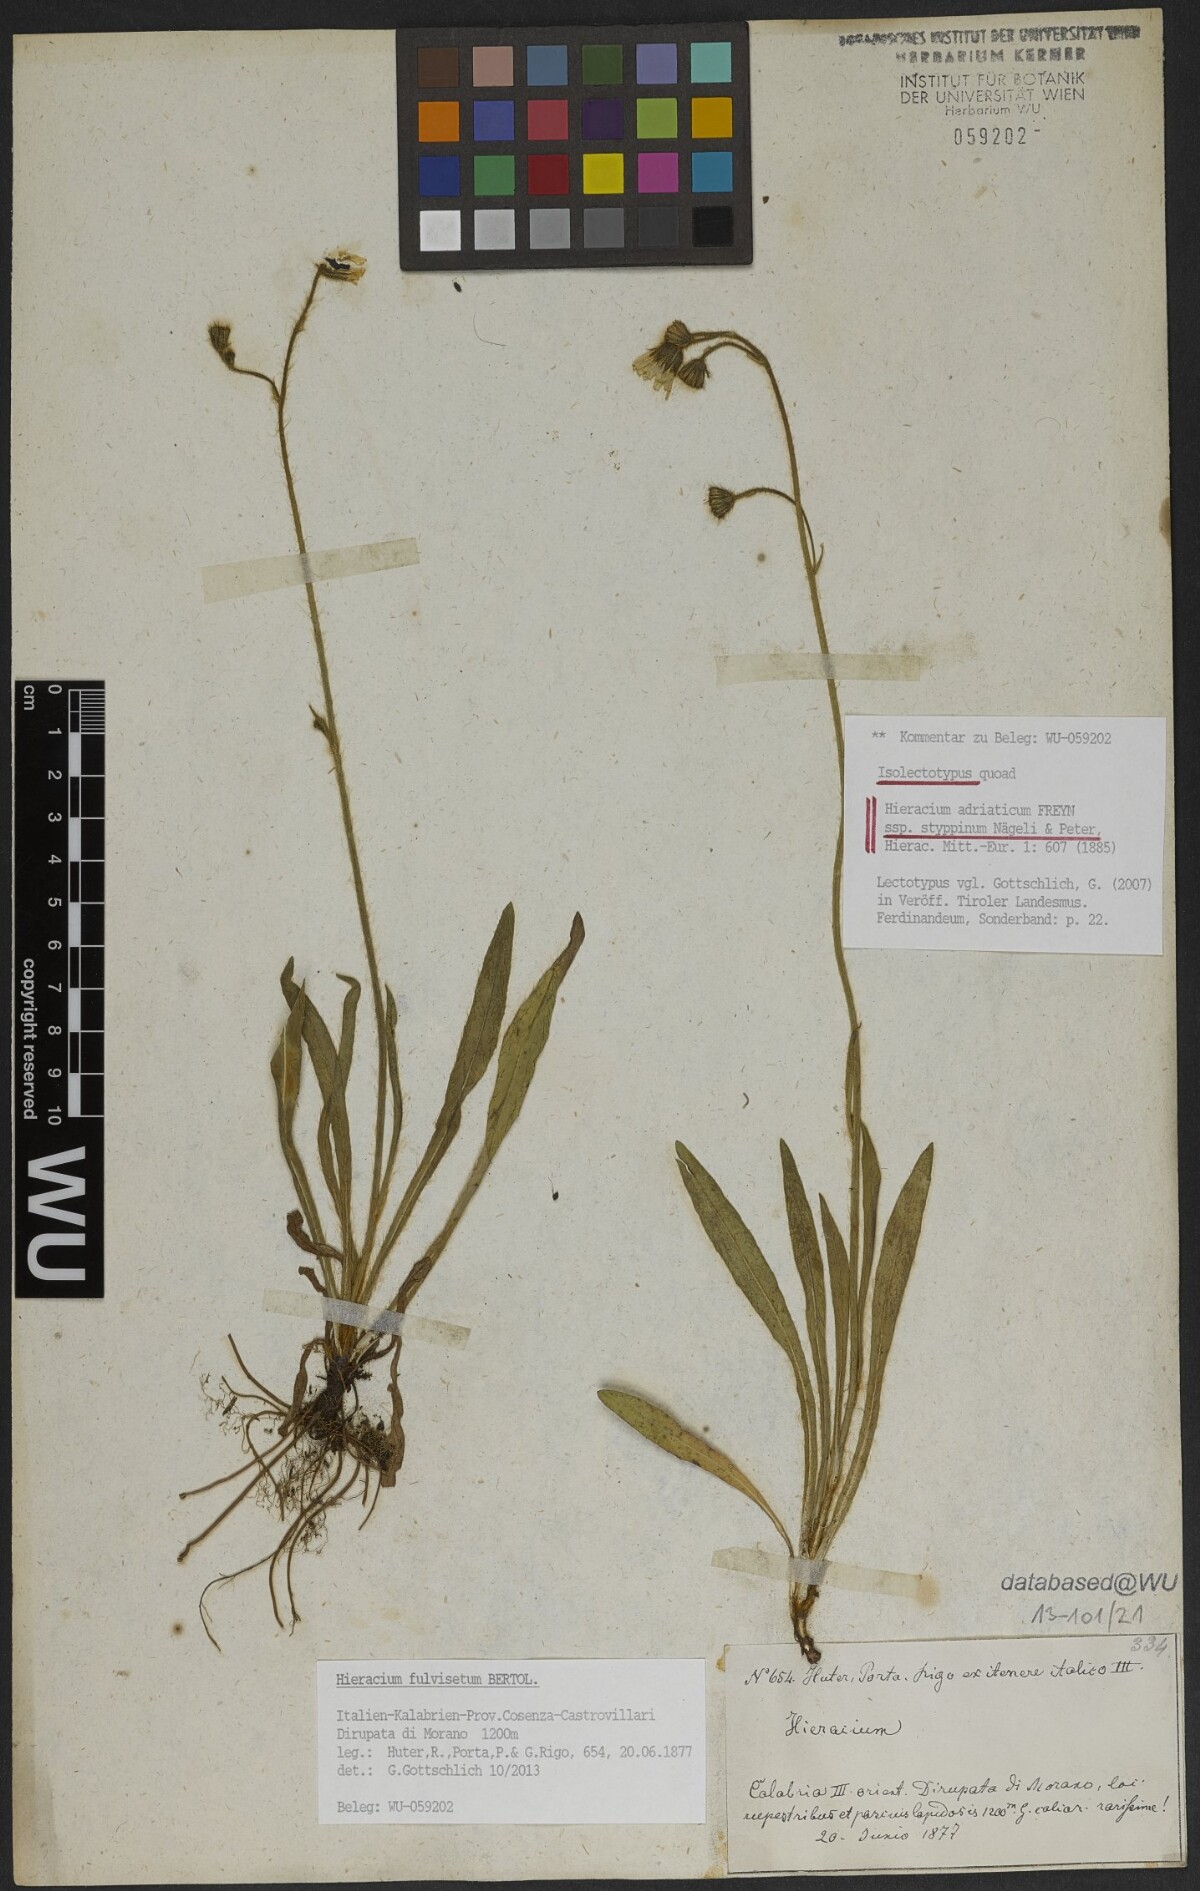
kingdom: Plantae
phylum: Tracheophyta
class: Magnoliopsida
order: Asterales
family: Asteraceae
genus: Pilosella
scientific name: Pilosella visianii
